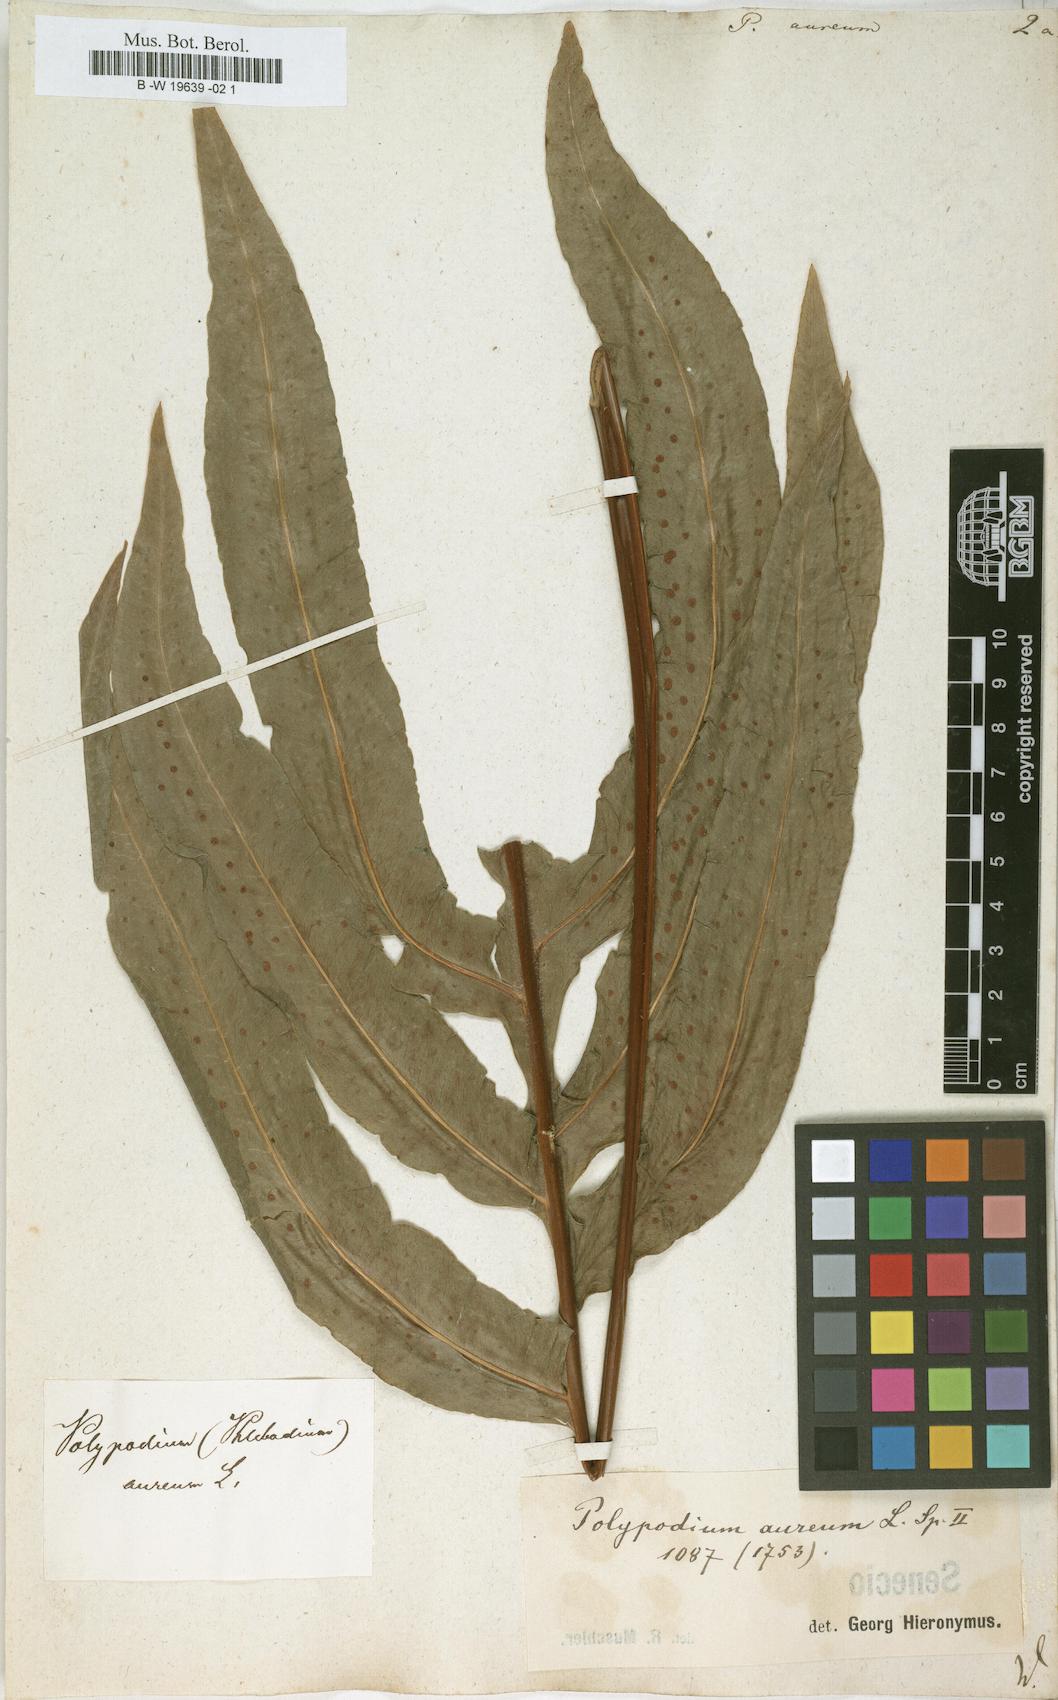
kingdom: Plantae
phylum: Tracheophyta
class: Polypodiopsida
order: Polypodiales
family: Polypodiaceae
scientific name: Polypodiaceae
